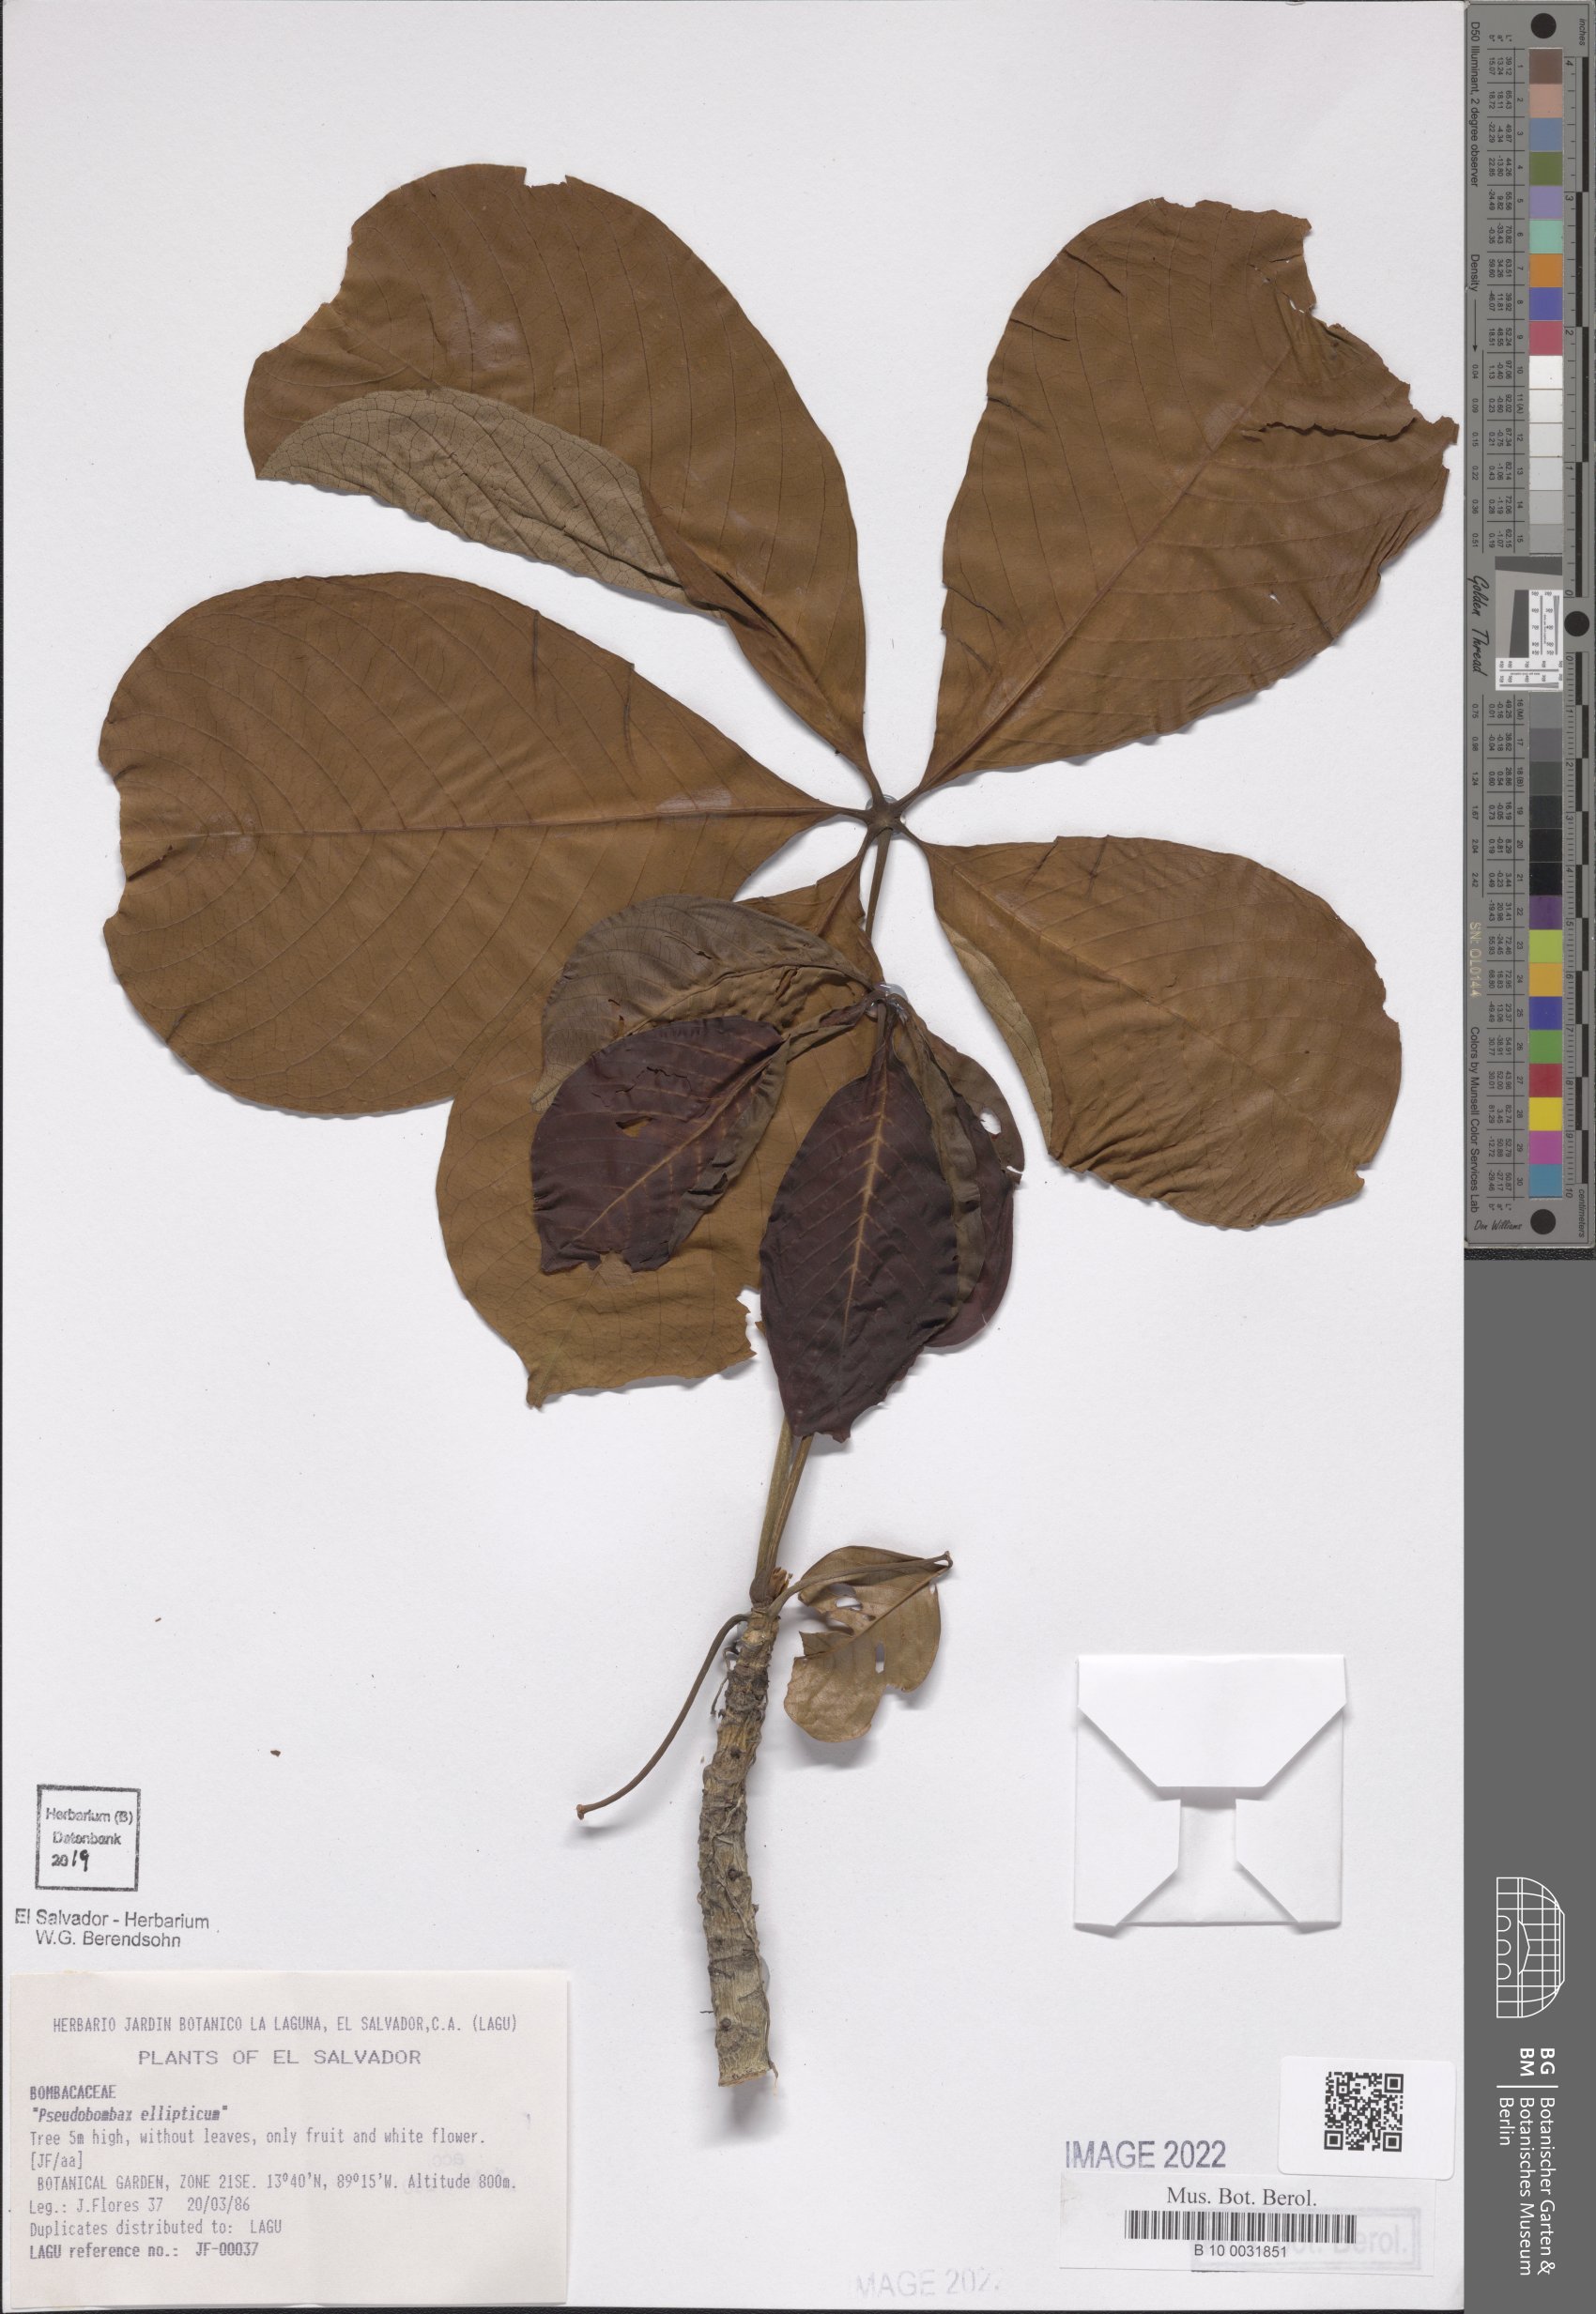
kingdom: Plantae
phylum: Tracheophyta
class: Magnoliopsida
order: Malvales
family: Malvaceae
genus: Pseudobombax
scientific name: Pseudobombax ellipticum
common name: Shaving-brush-tree
